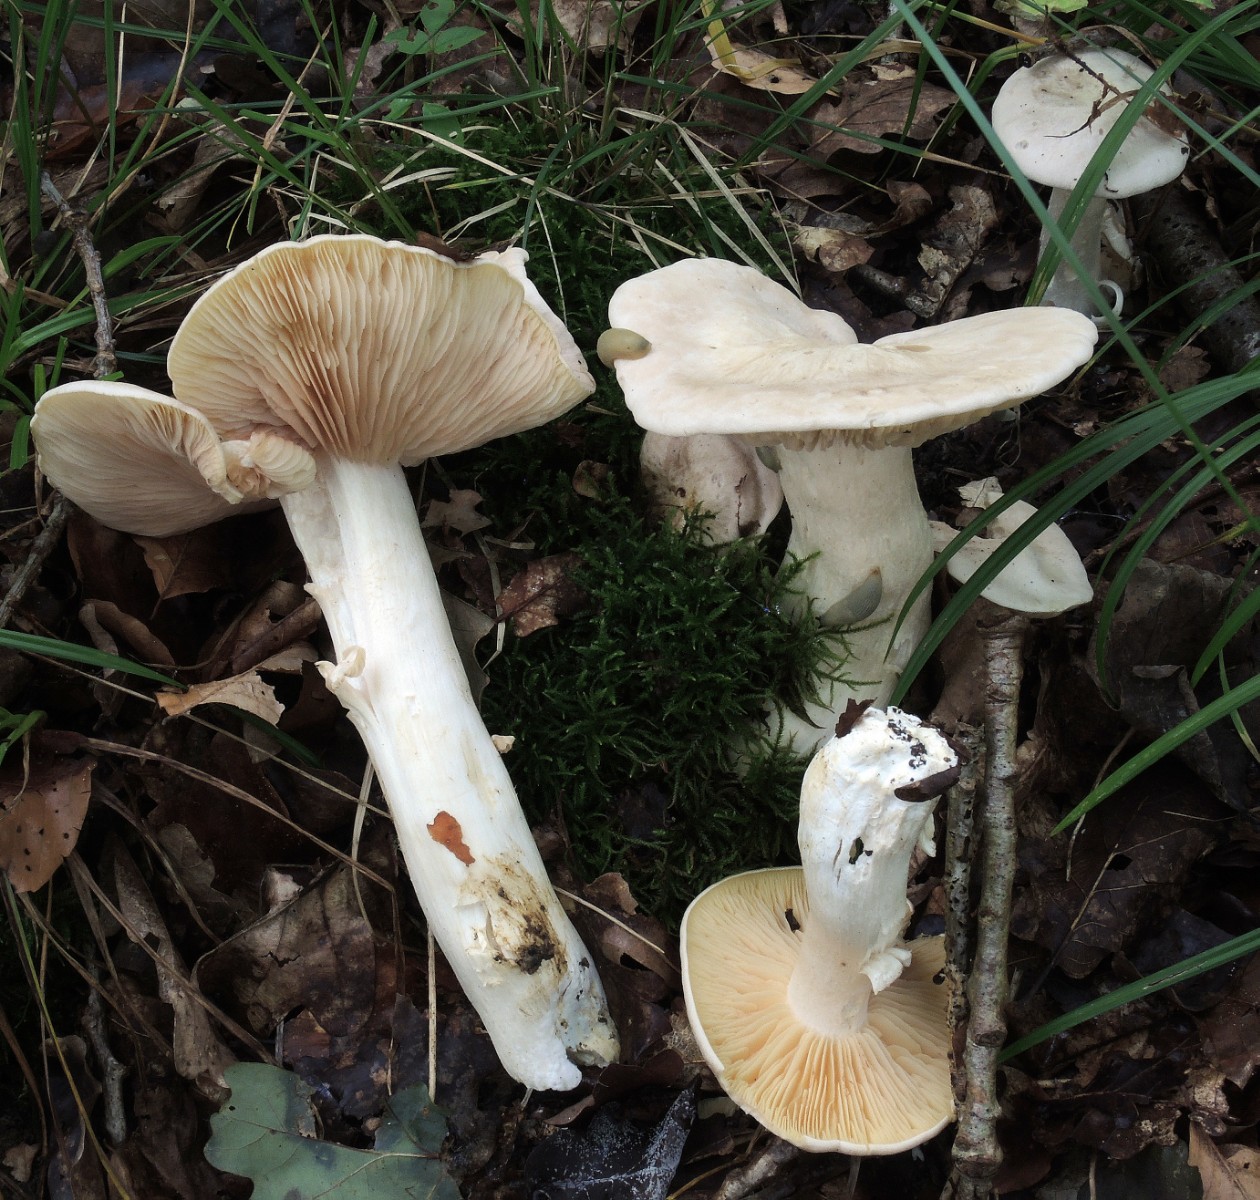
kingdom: Fungi
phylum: Basidiomycota
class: Agaricomycetes
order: Agaricales
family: Entolomataceae
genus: Entoloma
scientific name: Entoloma sinuatum
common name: giftig rødblad
